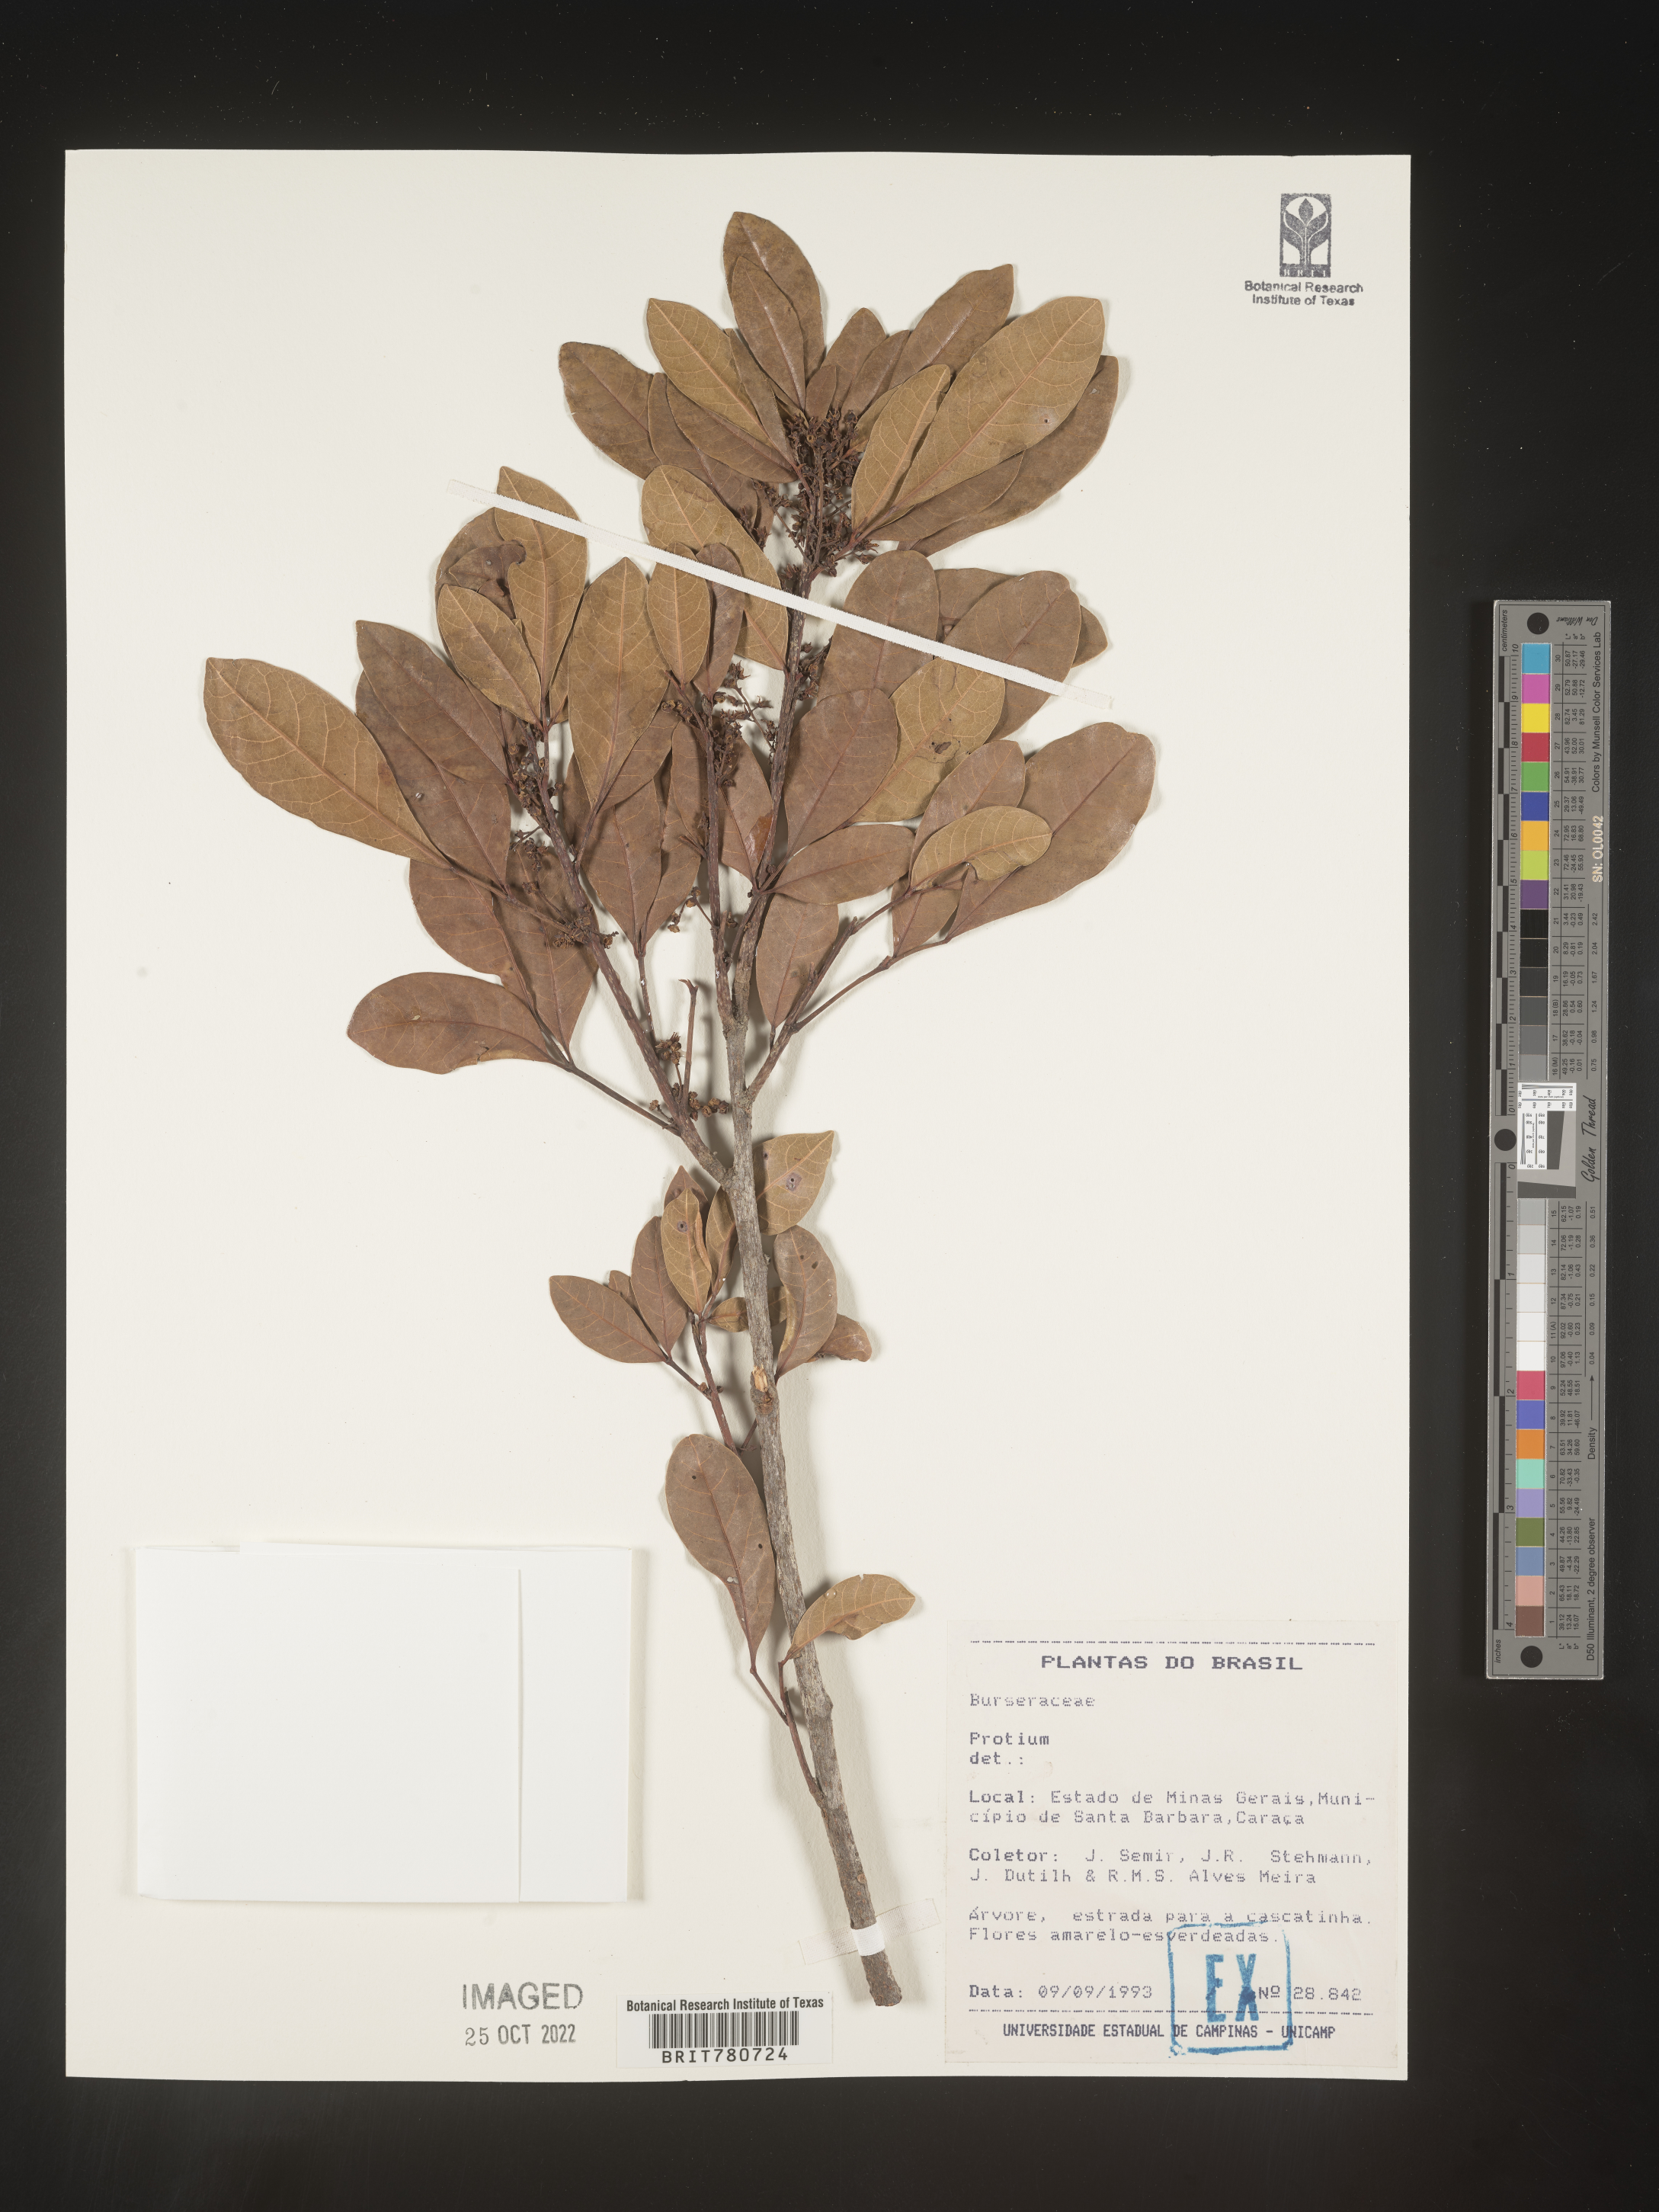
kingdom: Plantae
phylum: Tracheophyta
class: Magnoliopsida
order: Sapindales
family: Burseraceae
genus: Protium
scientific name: Protium
